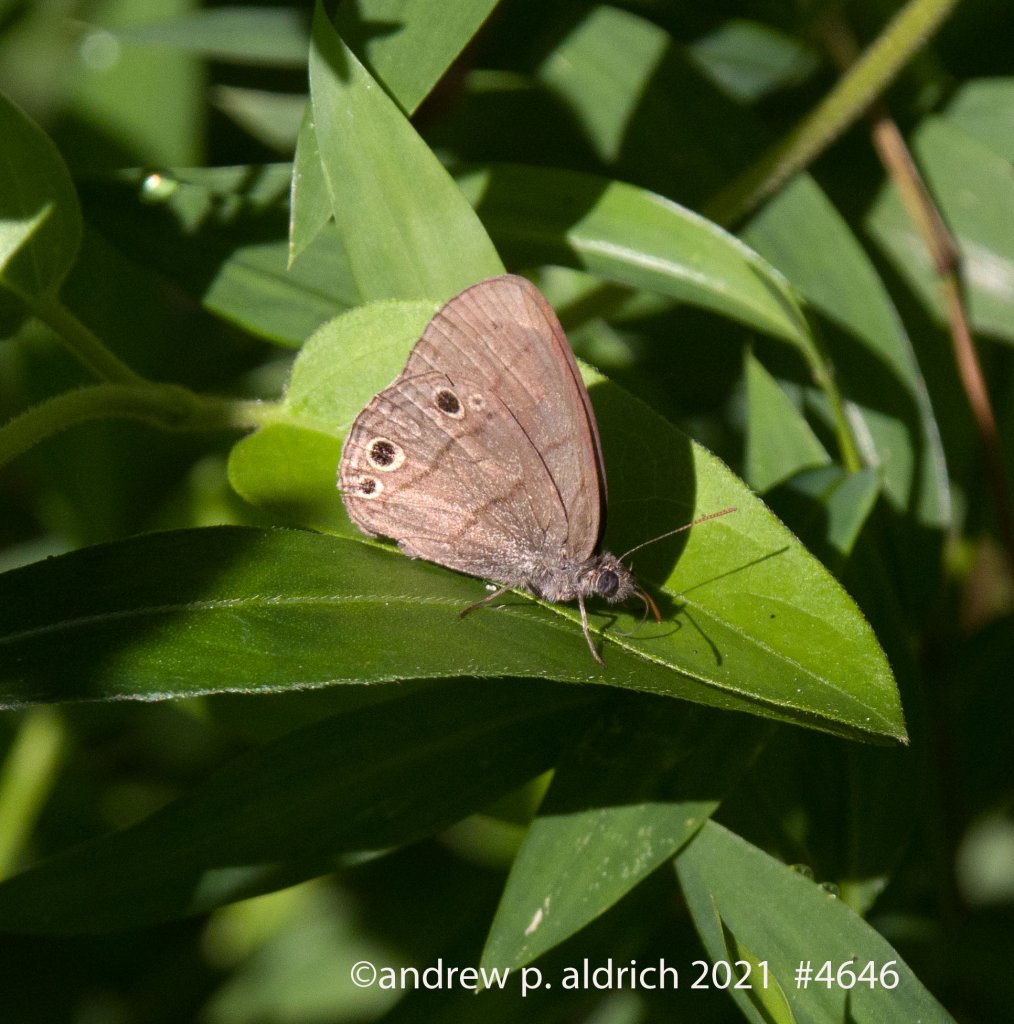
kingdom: Animalia
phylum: Arthropoda
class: Insecta
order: Lepidoptera
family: Nymphalidae
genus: Hermeuptychia
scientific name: Hermeuptychia hermes
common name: Carolina Satyr
